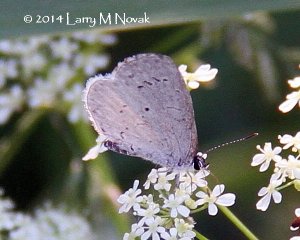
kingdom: Animalia
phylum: Arthropoda
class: Insecta
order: Lepidoptera
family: Lycaenidae
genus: Celastrina
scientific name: Celastrina serotina
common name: Cherry Gall Azure
